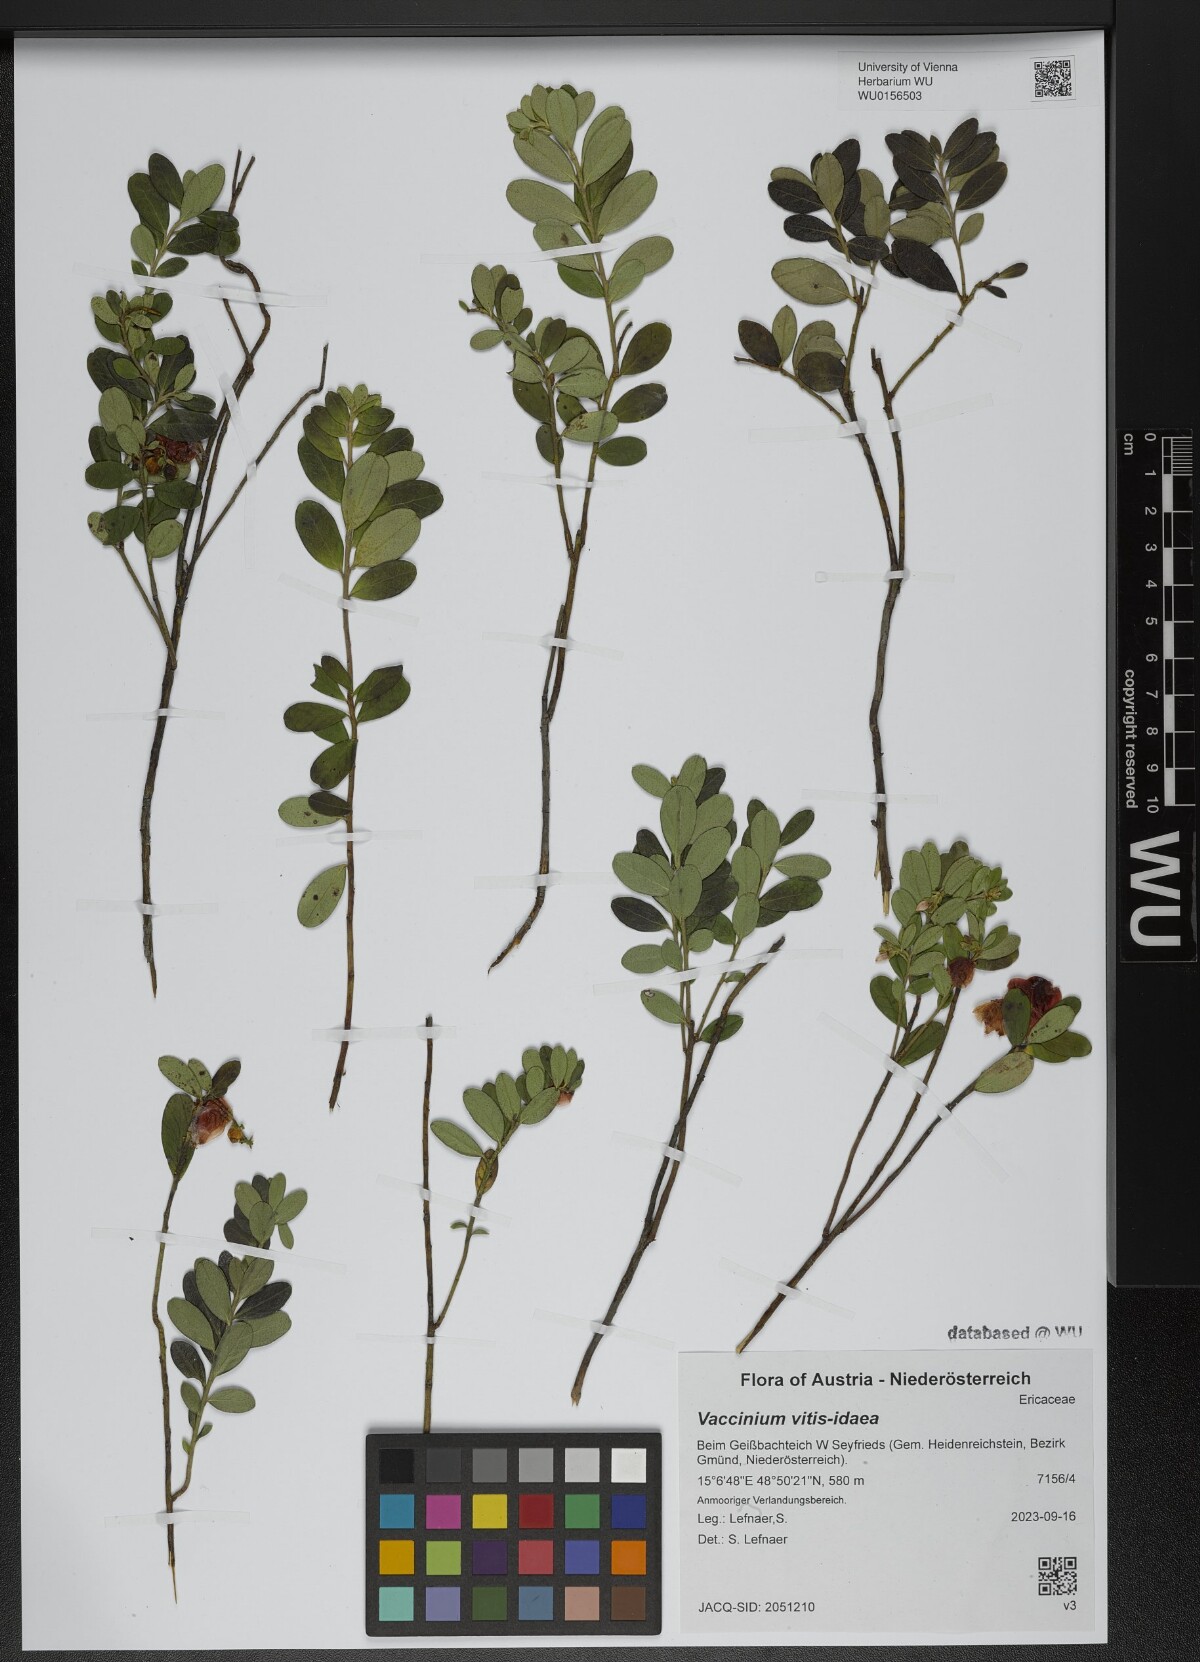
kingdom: Plantae
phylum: Tracheophyta
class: Magnoliopsida
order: Ericales
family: Ericaceae
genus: Vaccinium
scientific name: Vaccinium vitis-idaea
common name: Cowberry
